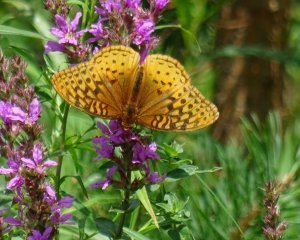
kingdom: Animalia
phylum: Arthropoda
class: Insecta
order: Lepidoptera
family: Nymphalidae
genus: Speyeria
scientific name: Speyeria cybele
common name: Great Spangled Fritillary
